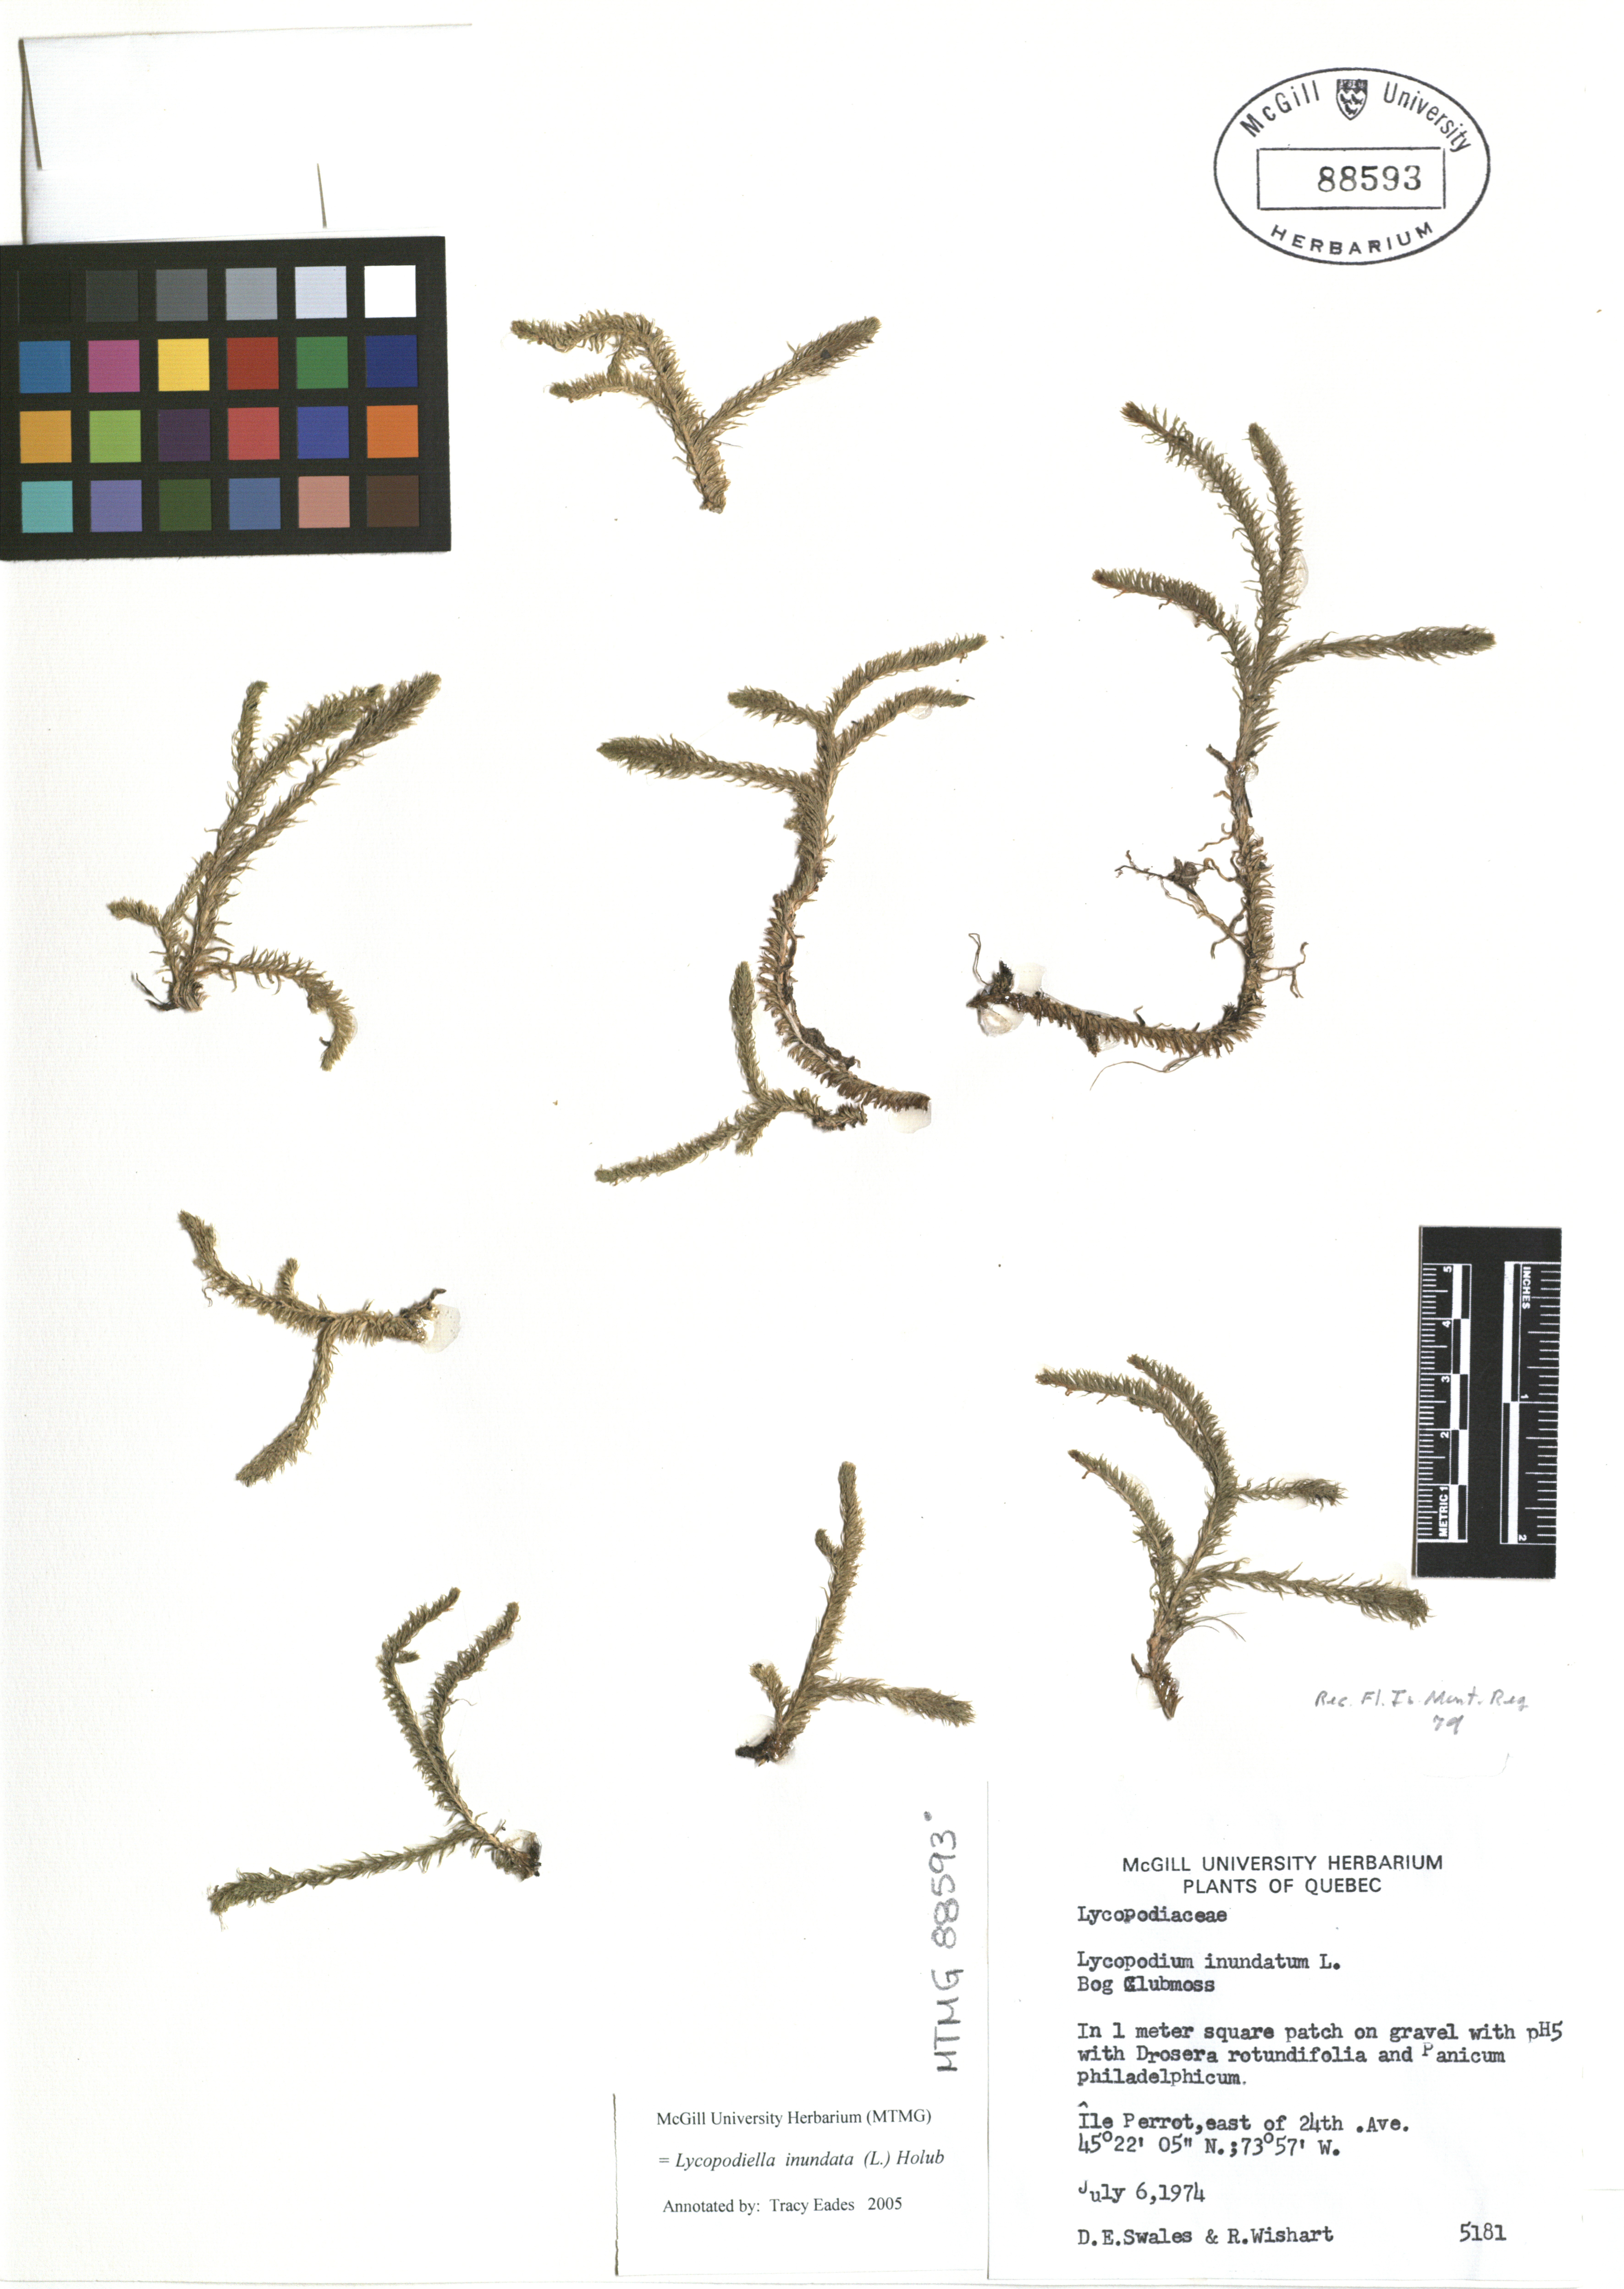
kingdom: Plantae
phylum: Tracheophyta
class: Lycopodiopsida
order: Lycopodiales
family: Lycopodiaceae
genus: Lycopodiella
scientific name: Lycopodiella inundata
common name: Marsh clubmoss
